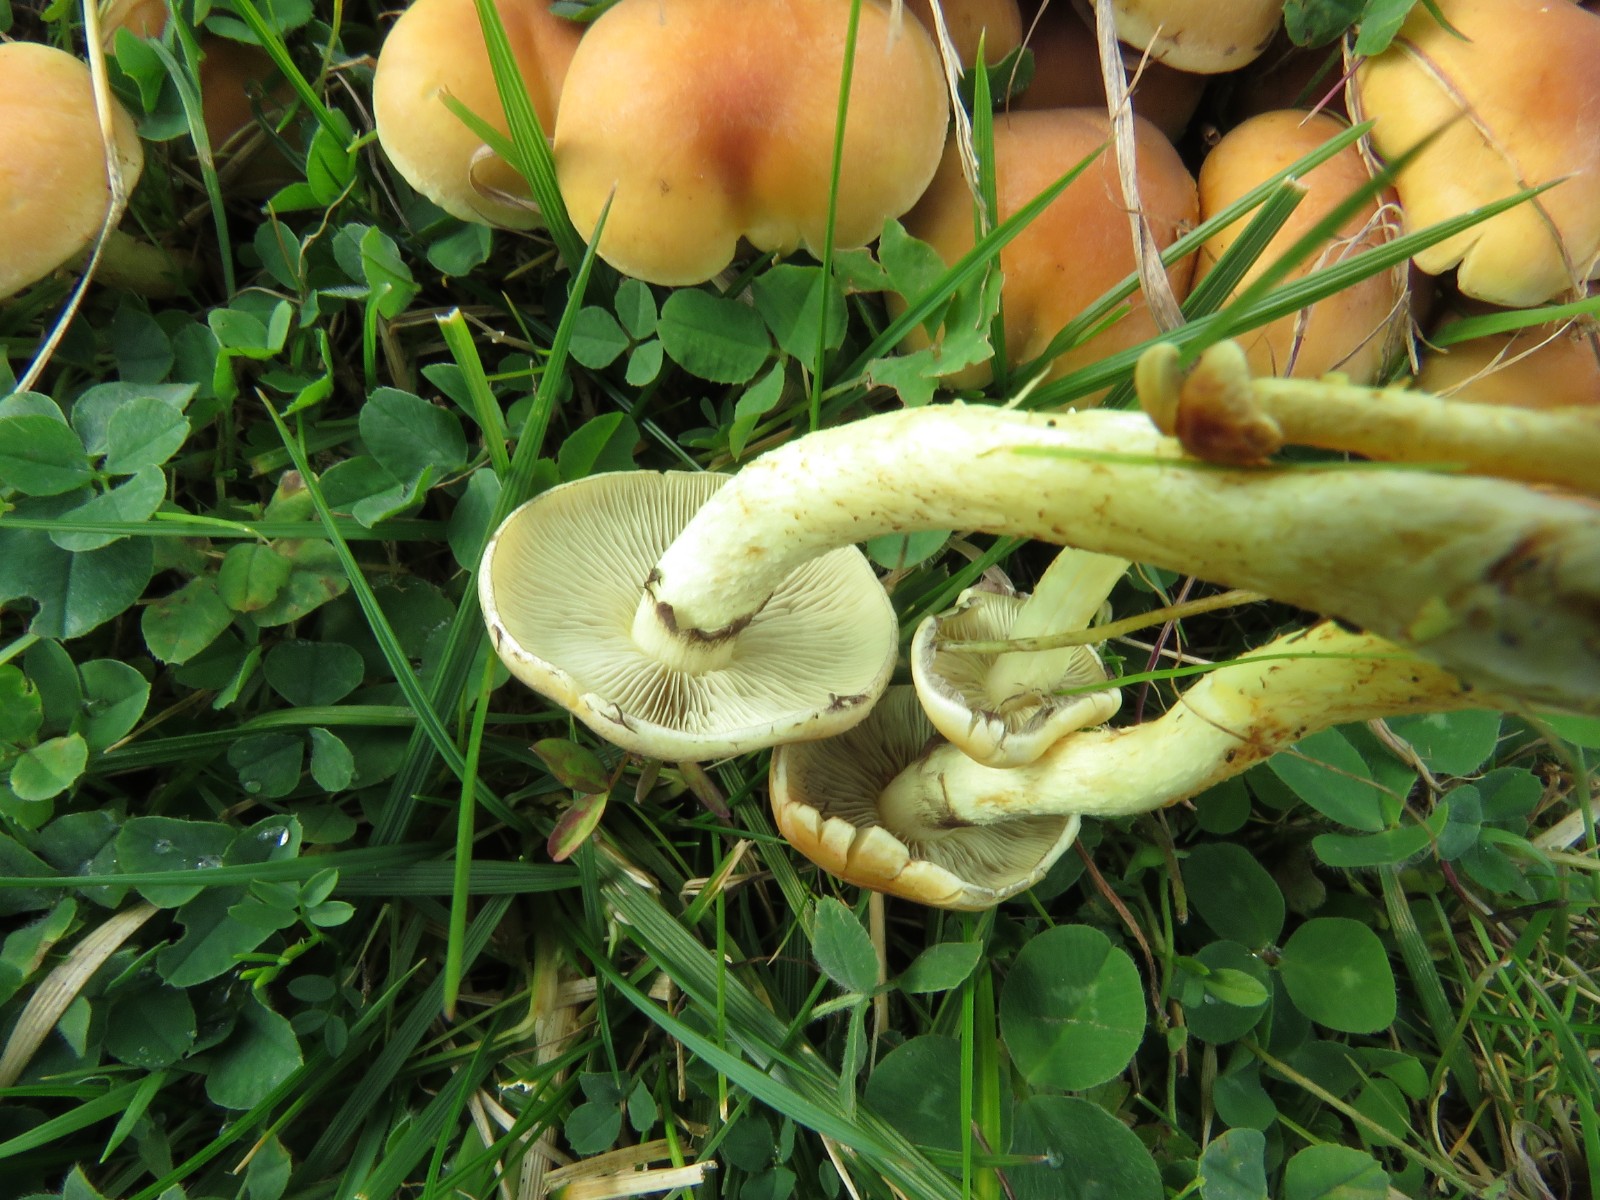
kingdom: Fungi
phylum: Basidiomycota
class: Agaricomycetes
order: Agaricales
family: Strophariaceae
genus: Hypholoma
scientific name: Hypholoma fasciculare
